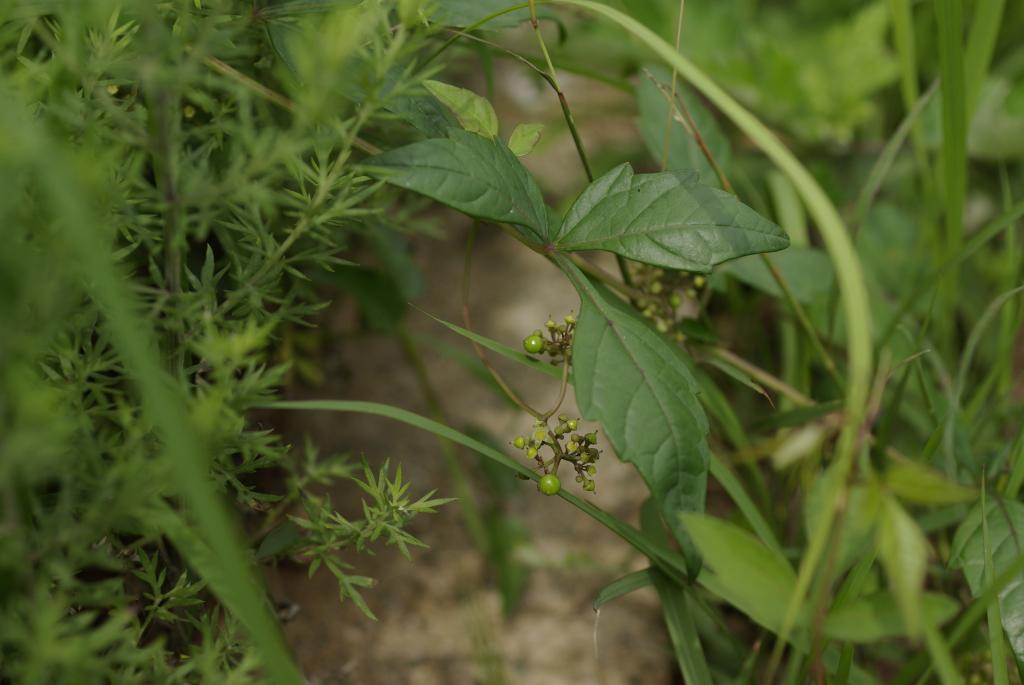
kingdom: Plantae
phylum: Tracheophyta
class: Magnoliopsida
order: Vitales
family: Vitaceae
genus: Ampelopsis
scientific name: Ampelopsis japonica
